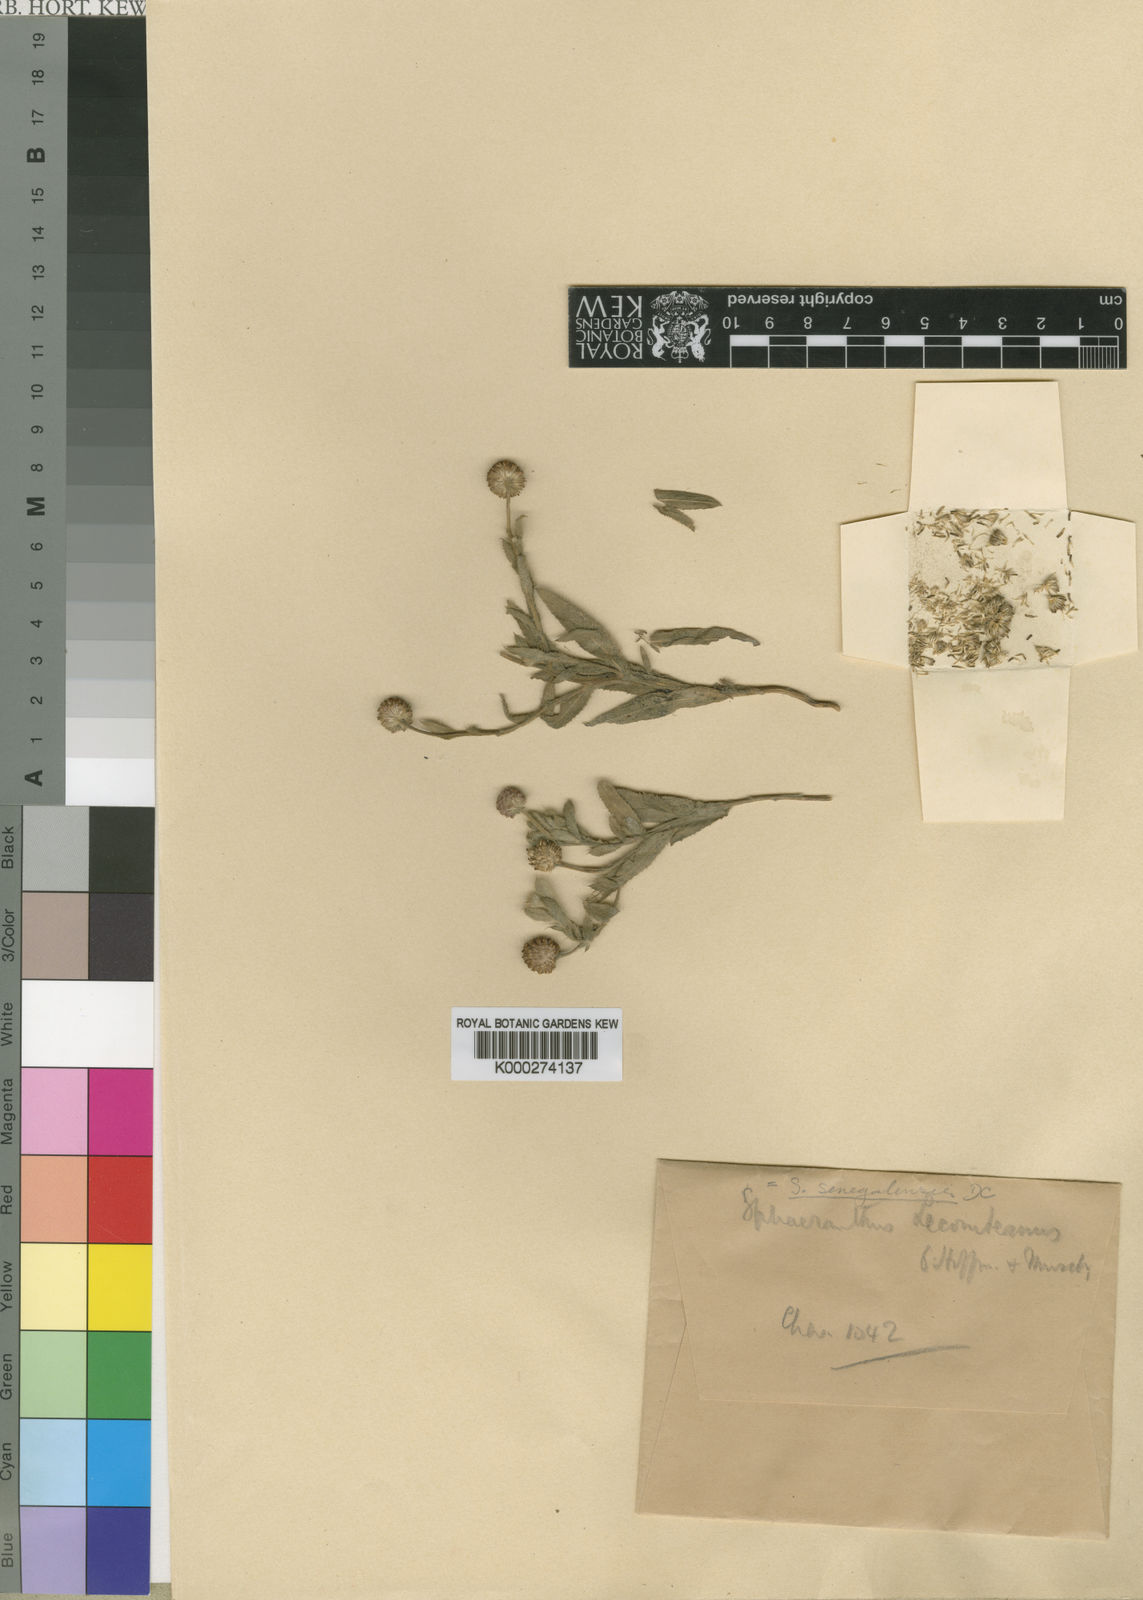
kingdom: Plantae
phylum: Tracheophyta
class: Magnoliopsida
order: Asterales
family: Asteraceae
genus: Sphaeranthus
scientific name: Sphaeranthus senegalensis
